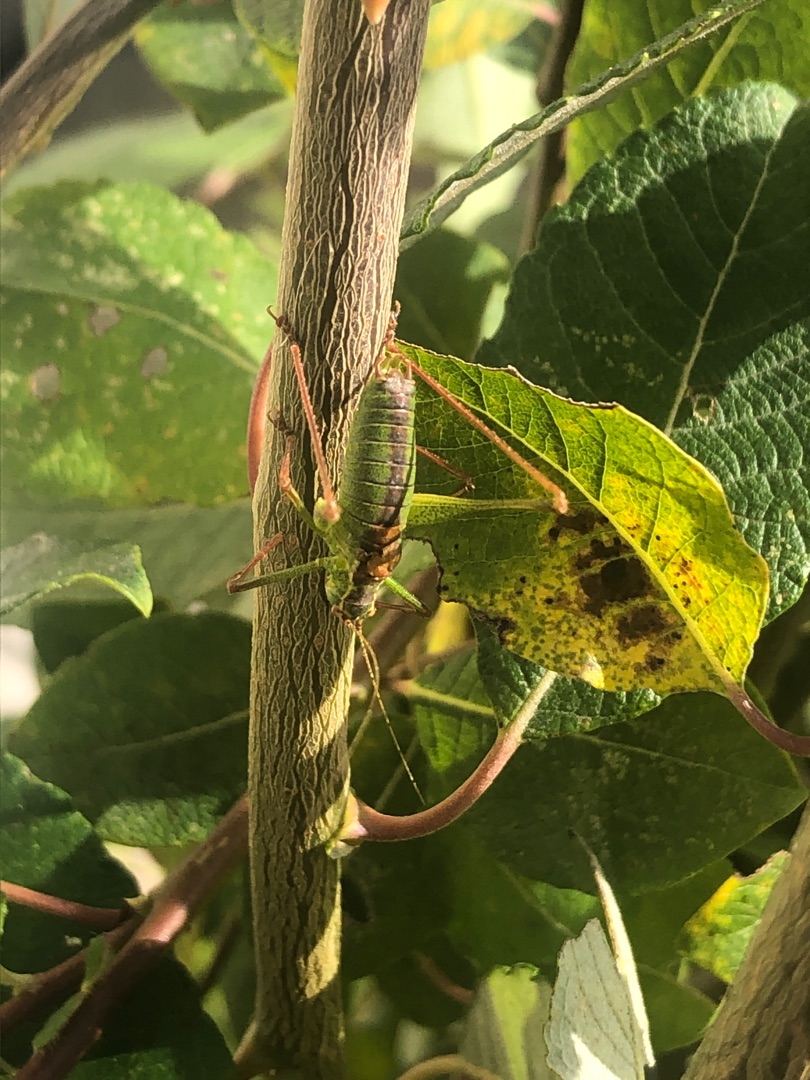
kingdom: Animalia
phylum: Arthropoda
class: Insecta
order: Orthoptera
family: Tettigoniidae
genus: Leptophyes
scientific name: Leptophyes punctatissima
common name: Krumknivgræshoppe
